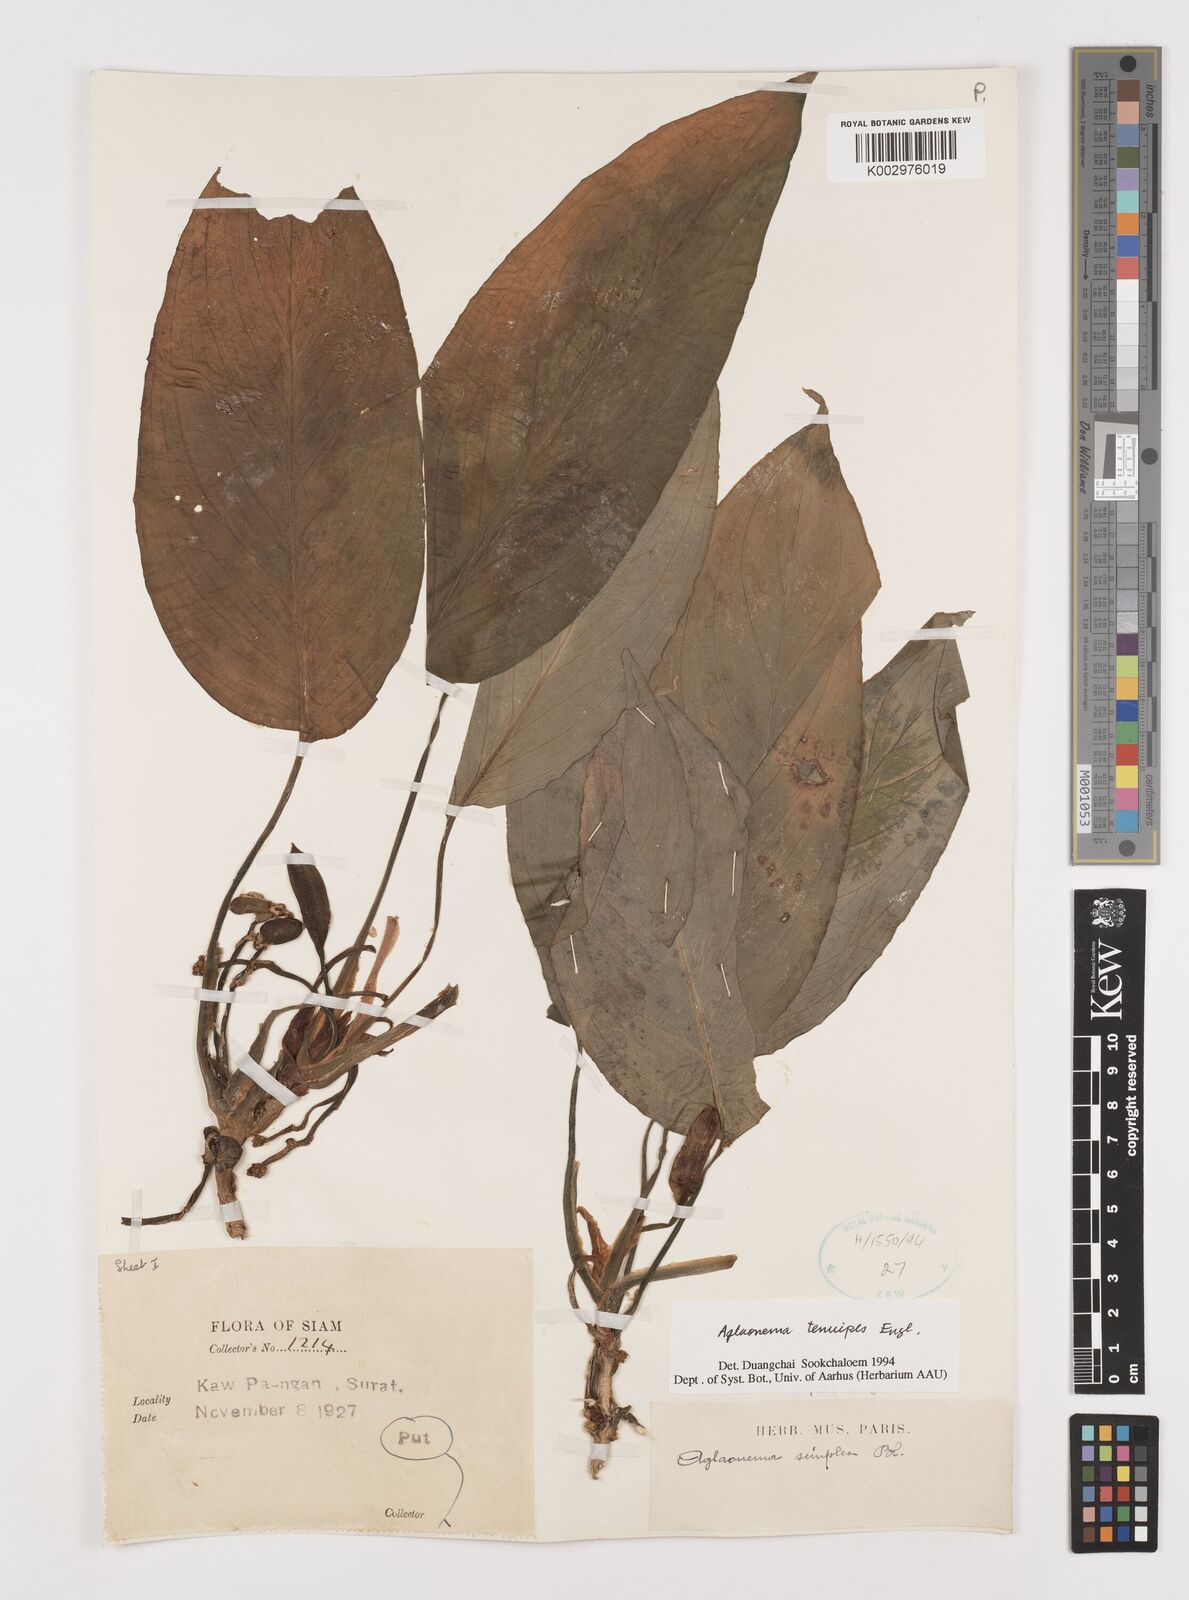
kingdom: Plantae
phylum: Tracheophyta
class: Liliopsida
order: Alismatales
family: Araceae
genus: Aglaonema
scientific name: Aglaonema simplex
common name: Malayan-sword
